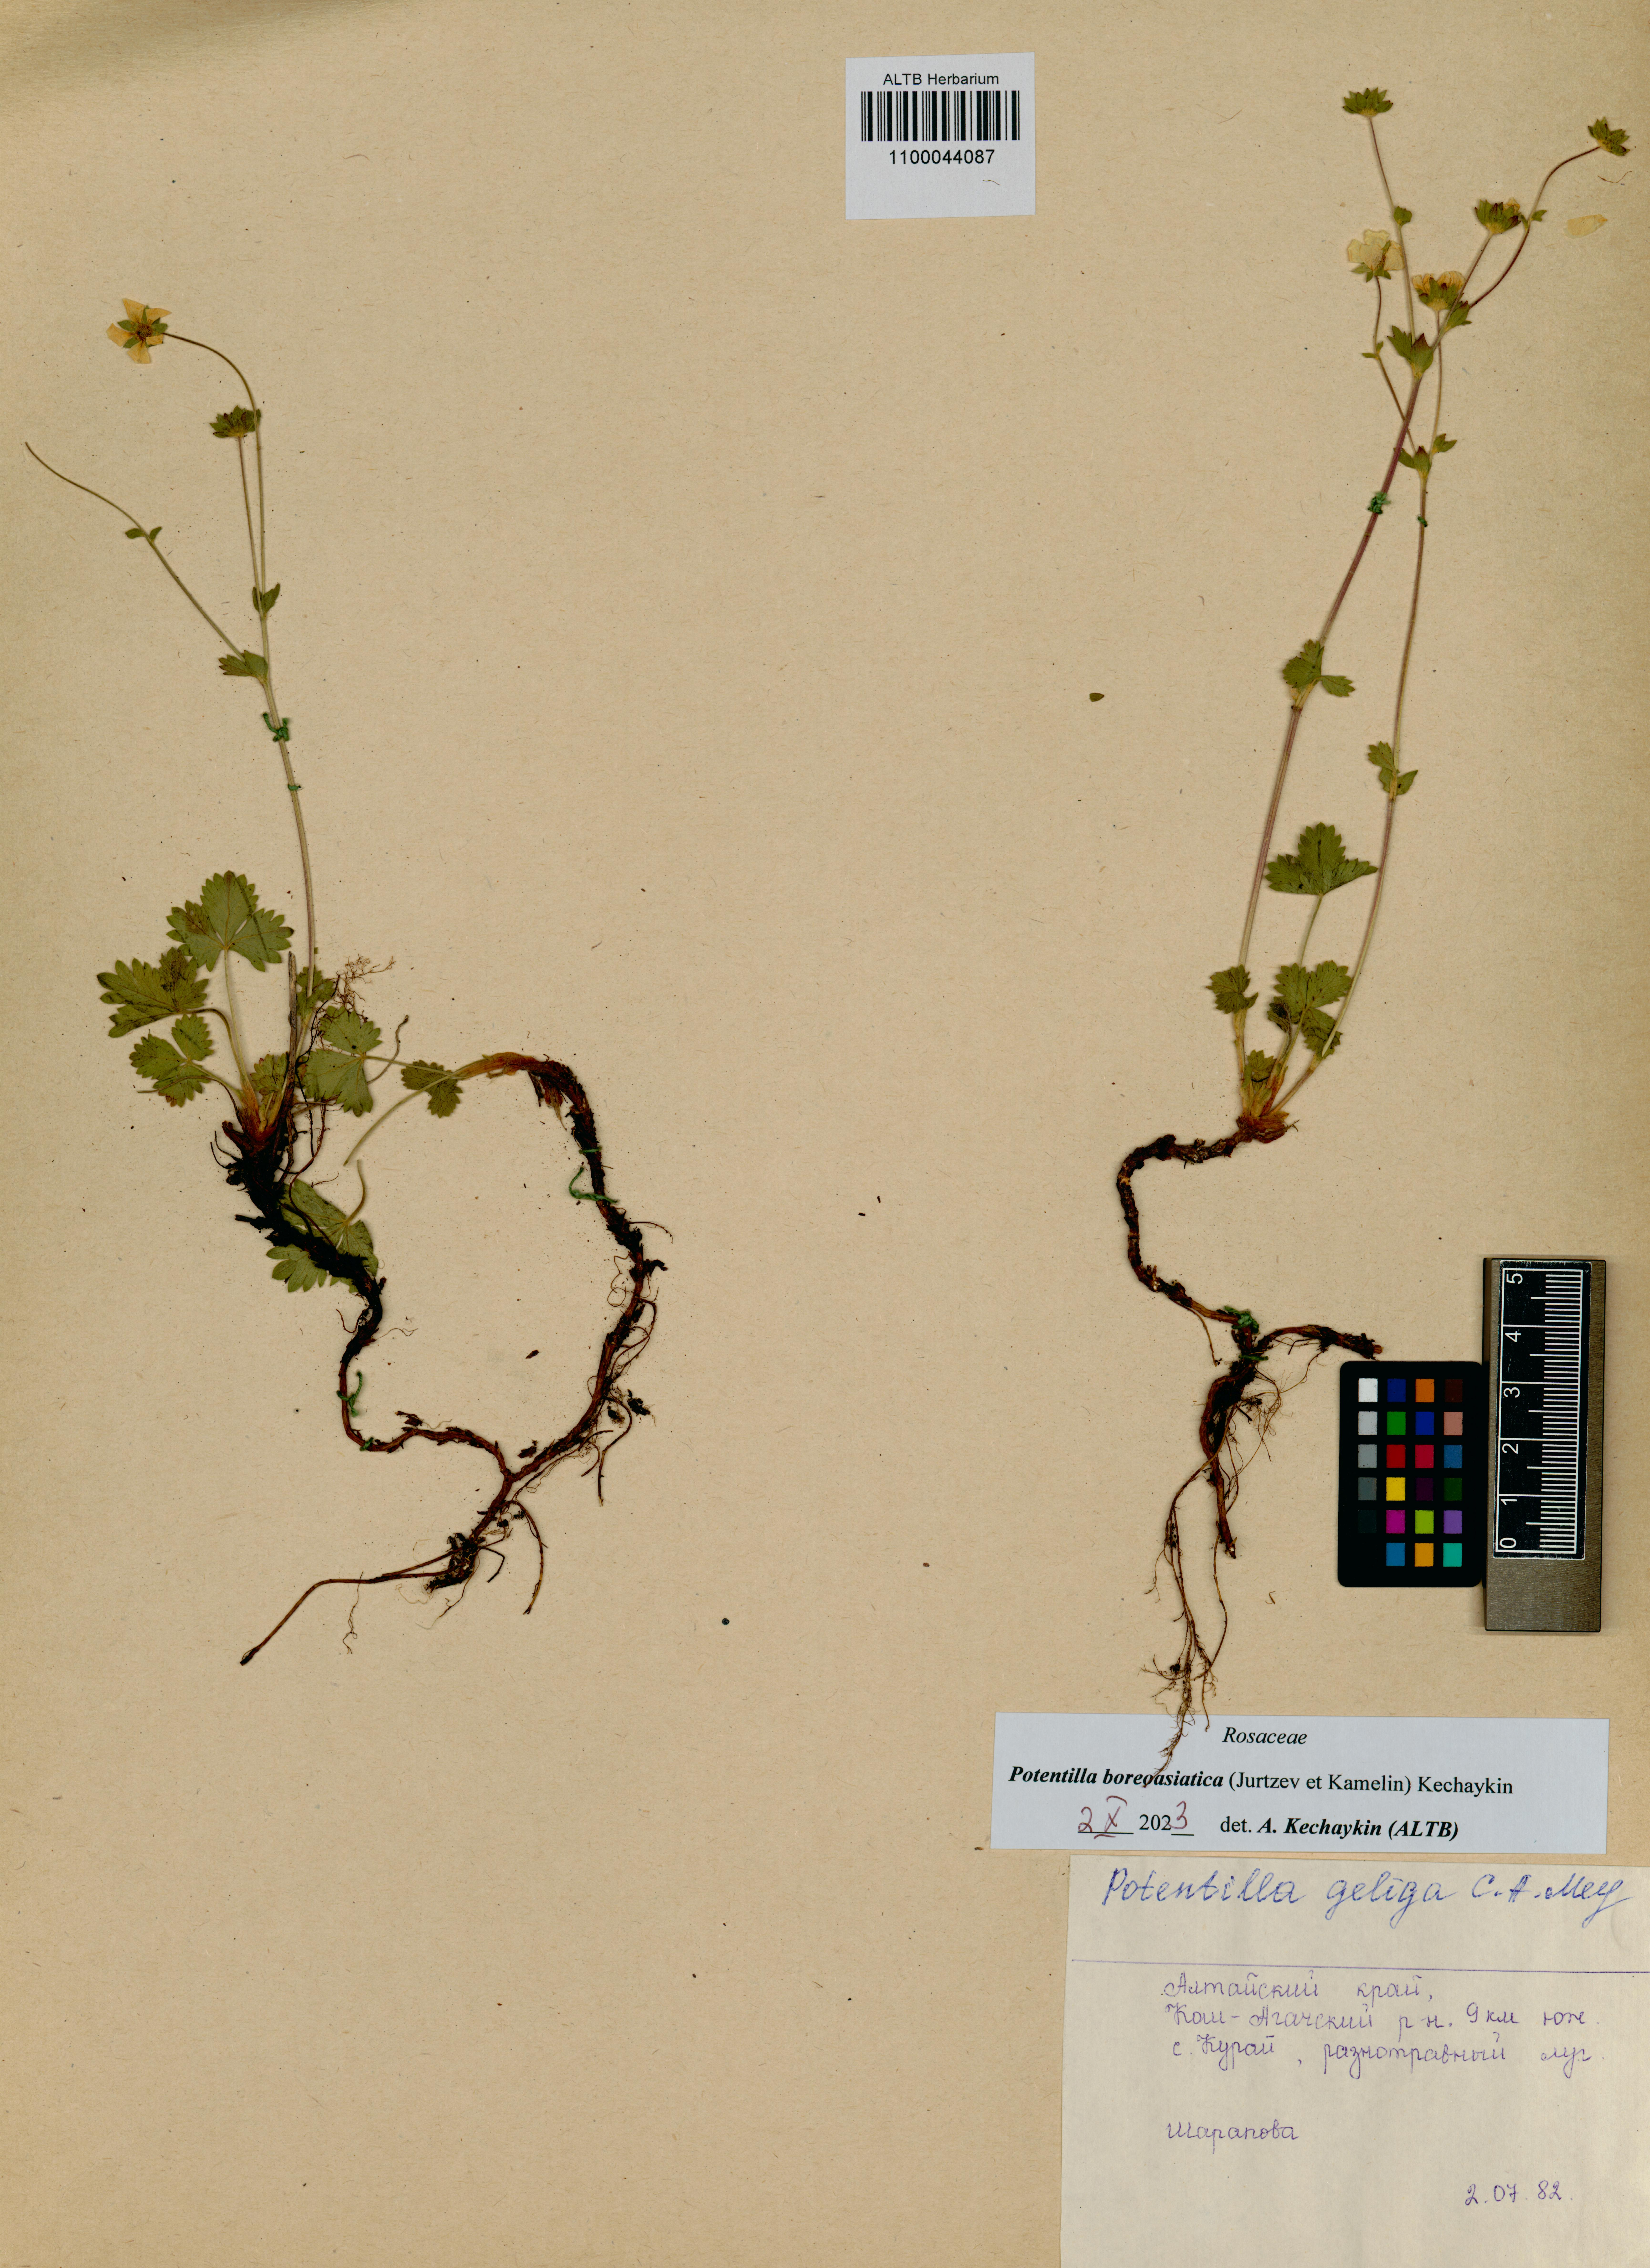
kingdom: Plantae
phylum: Tracheophyta
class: Magnoliopsida
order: Rosales
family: Rosaceae
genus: Potentilla
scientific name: Potentilla
